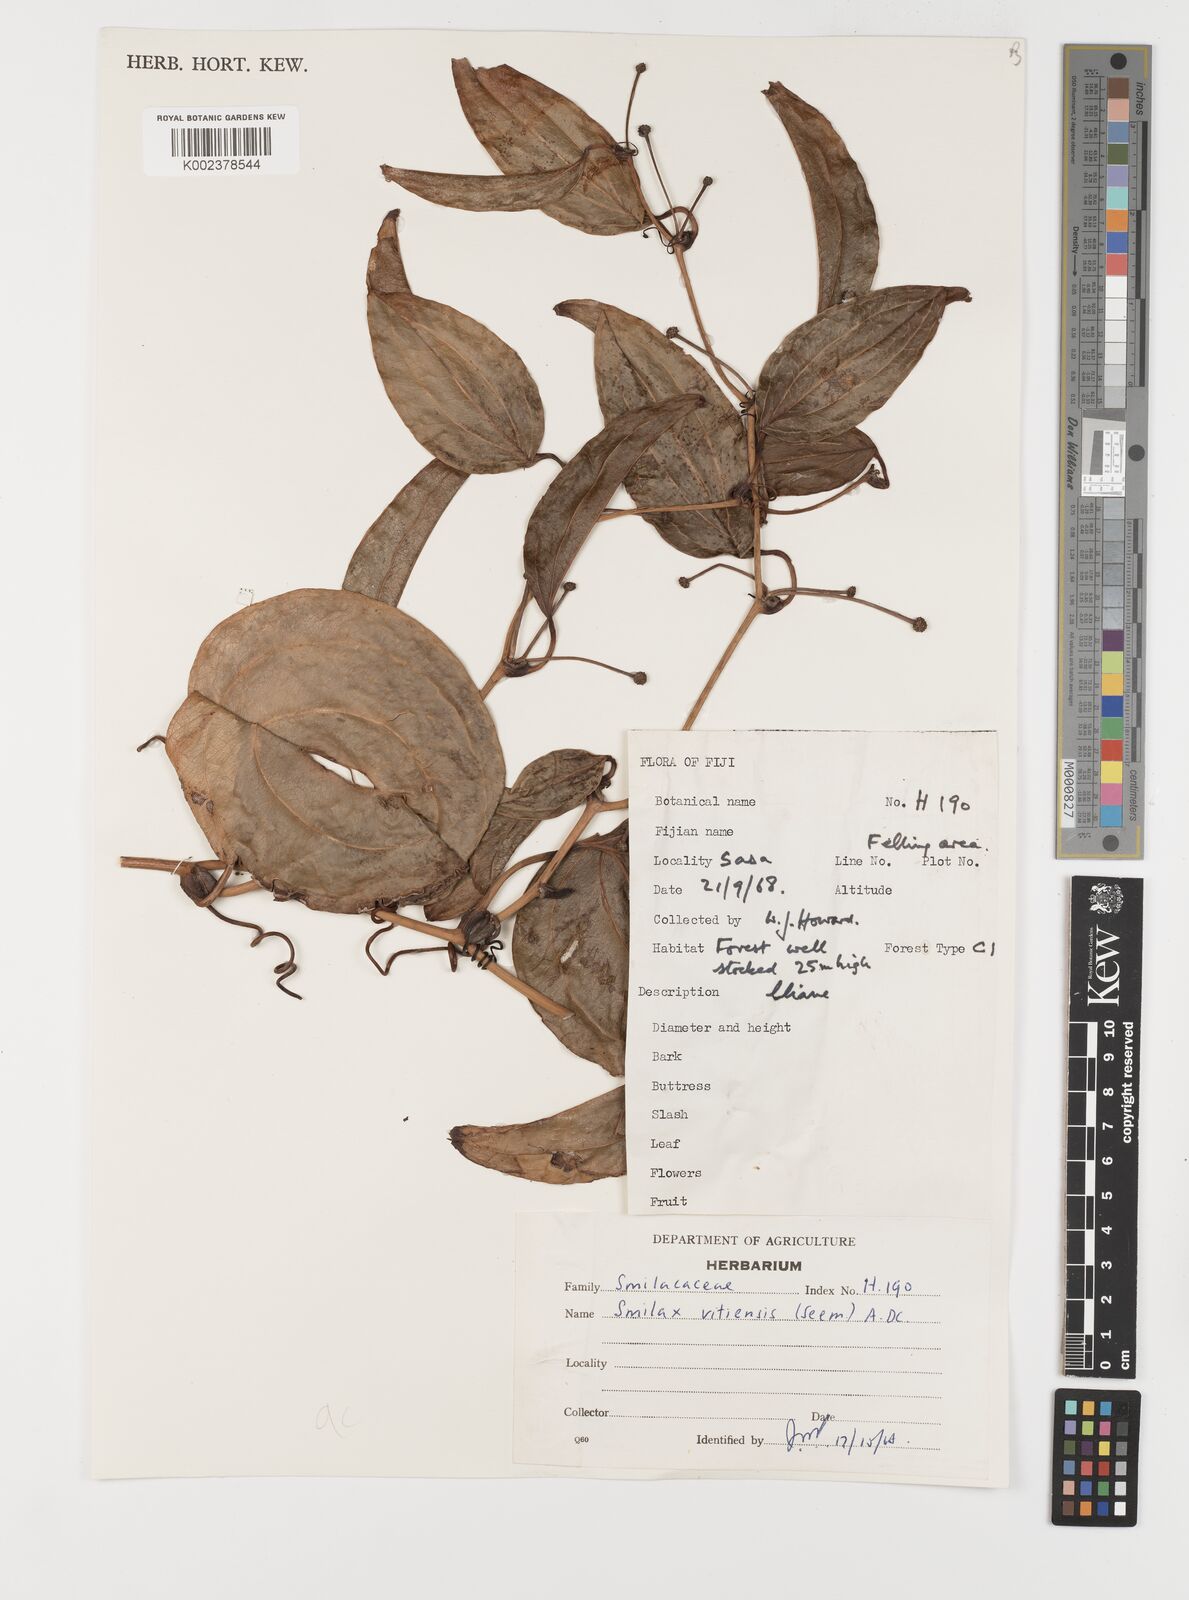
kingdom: Plantae
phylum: Tracheophyta
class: Liliopsida
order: Liliales
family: Smilacaceae
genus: Smilax
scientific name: Smilax vitiensis
